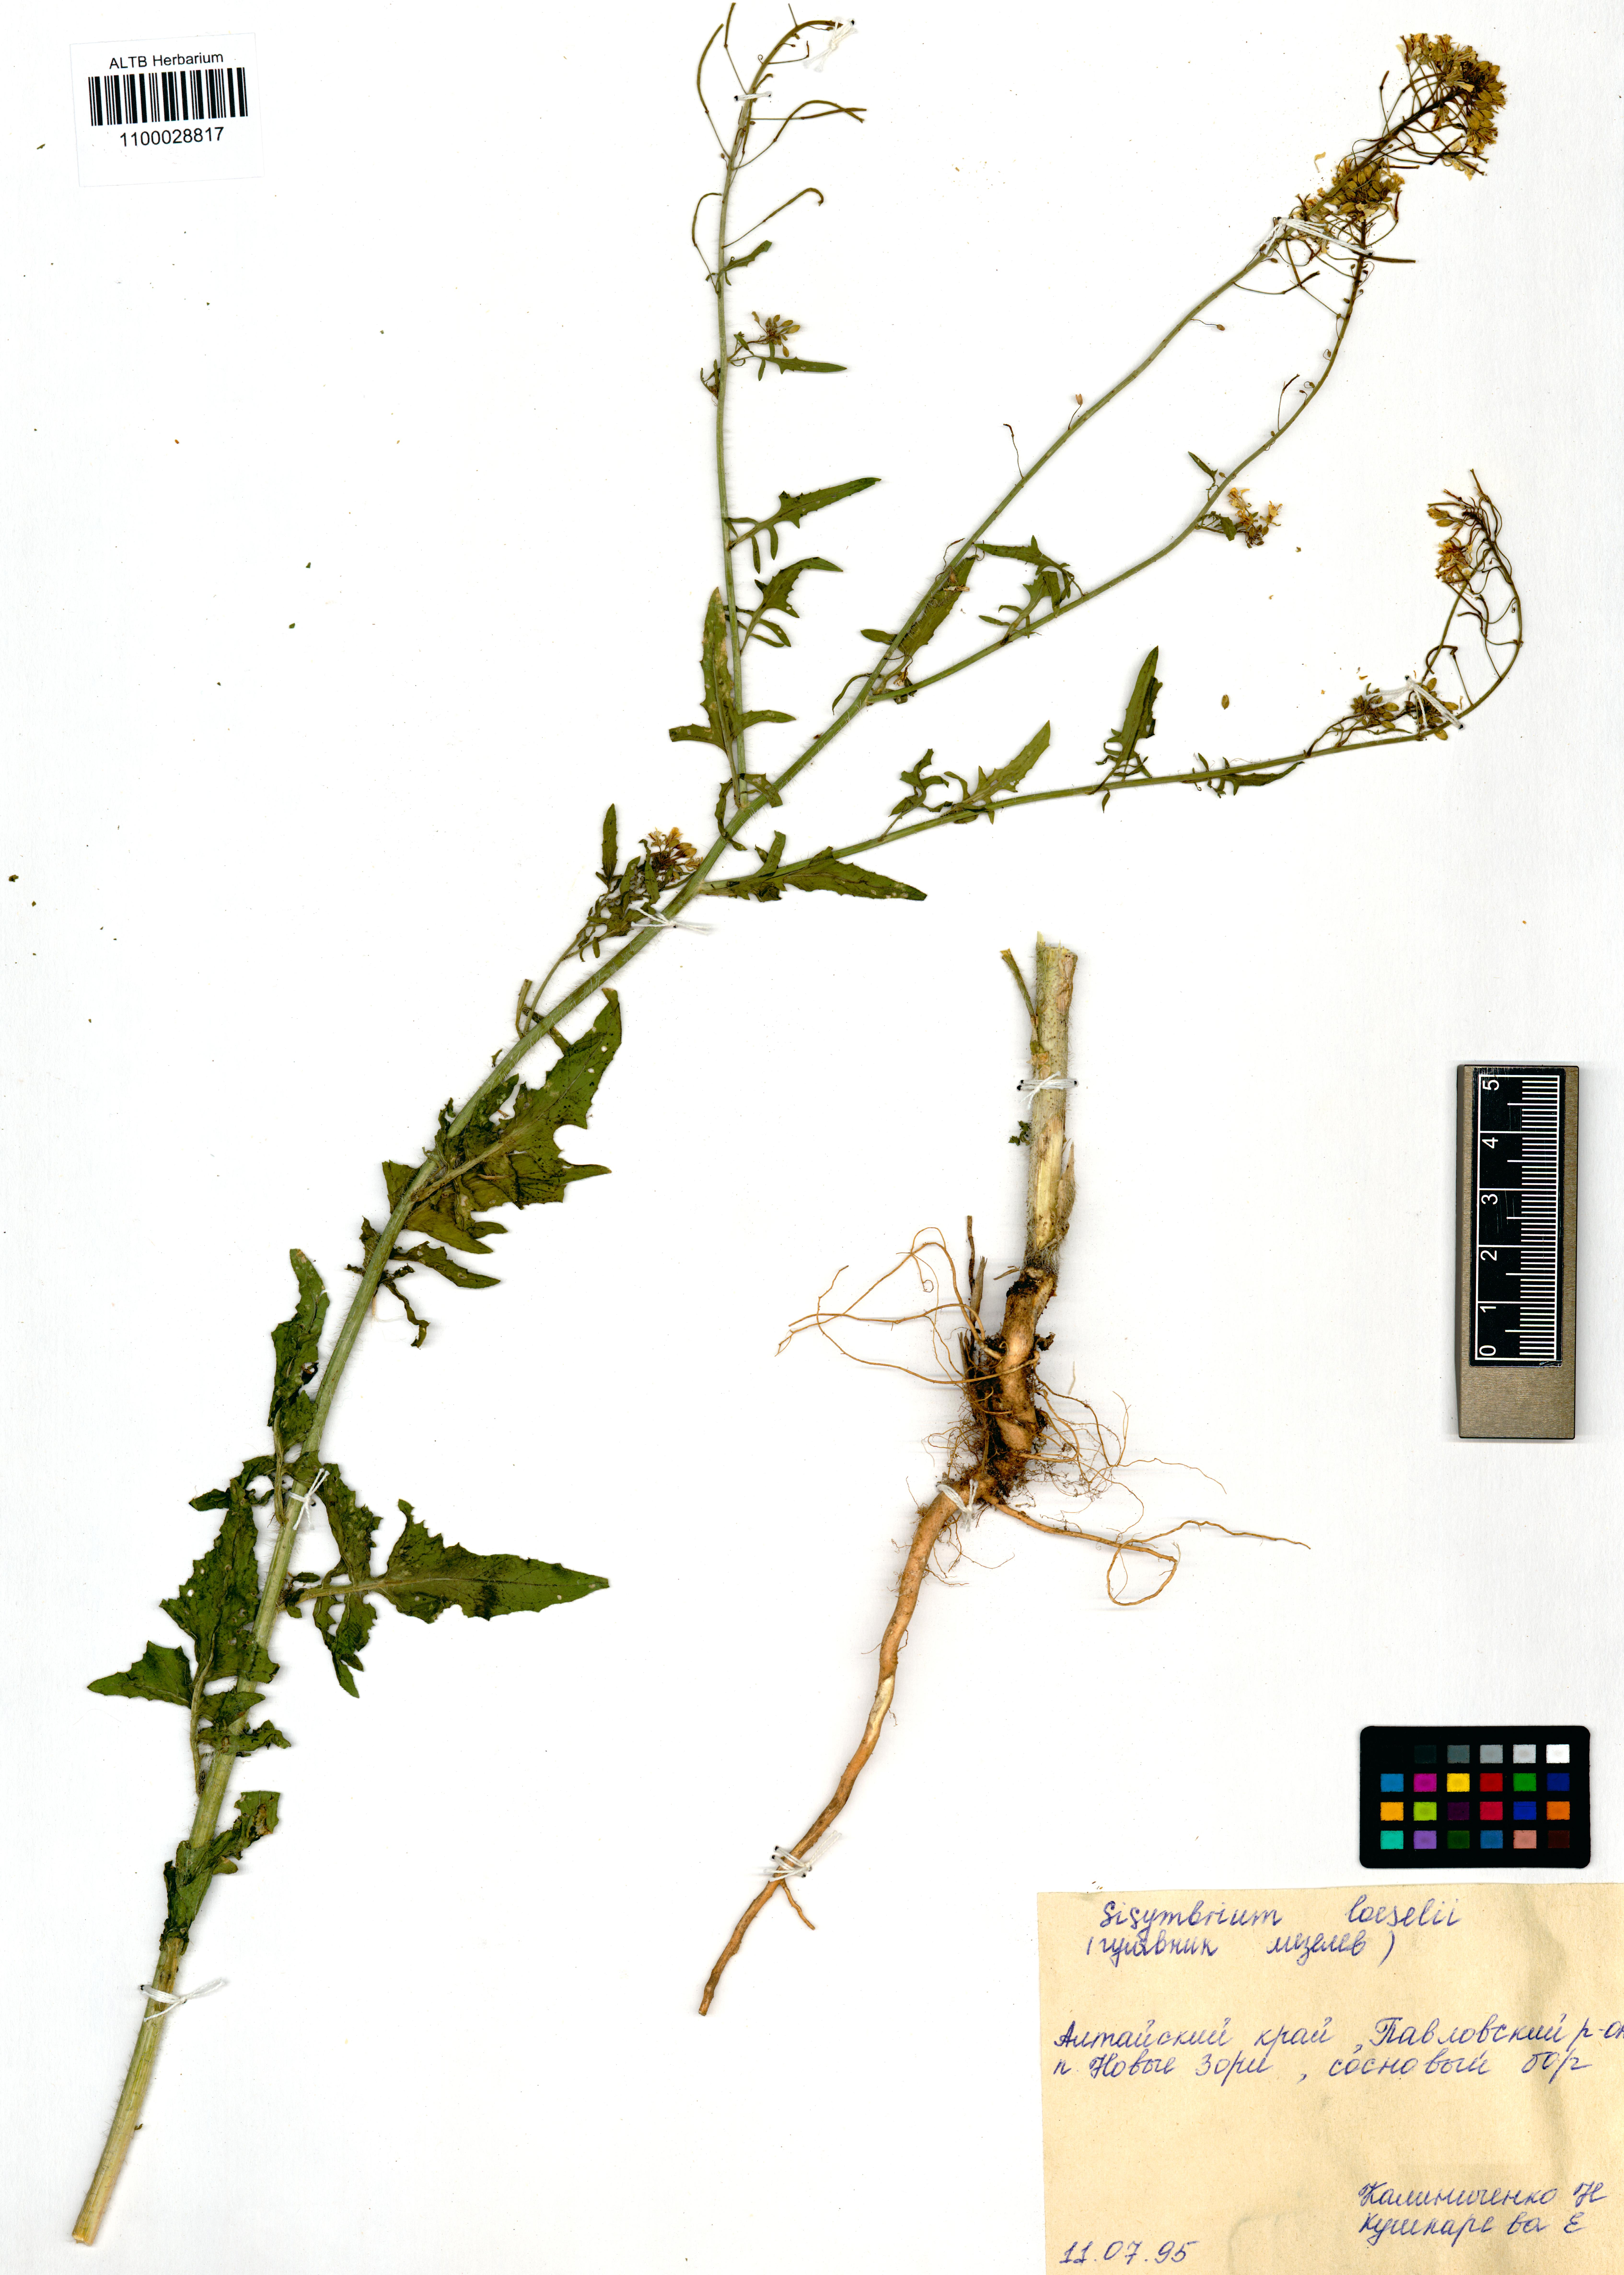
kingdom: Plantae
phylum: Tracheophyta
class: Magnoliopsida
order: Brassicales
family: Brassicaceae
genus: Sisymbrium
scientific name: Sisymbrium loeselii
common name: False london-rocket
